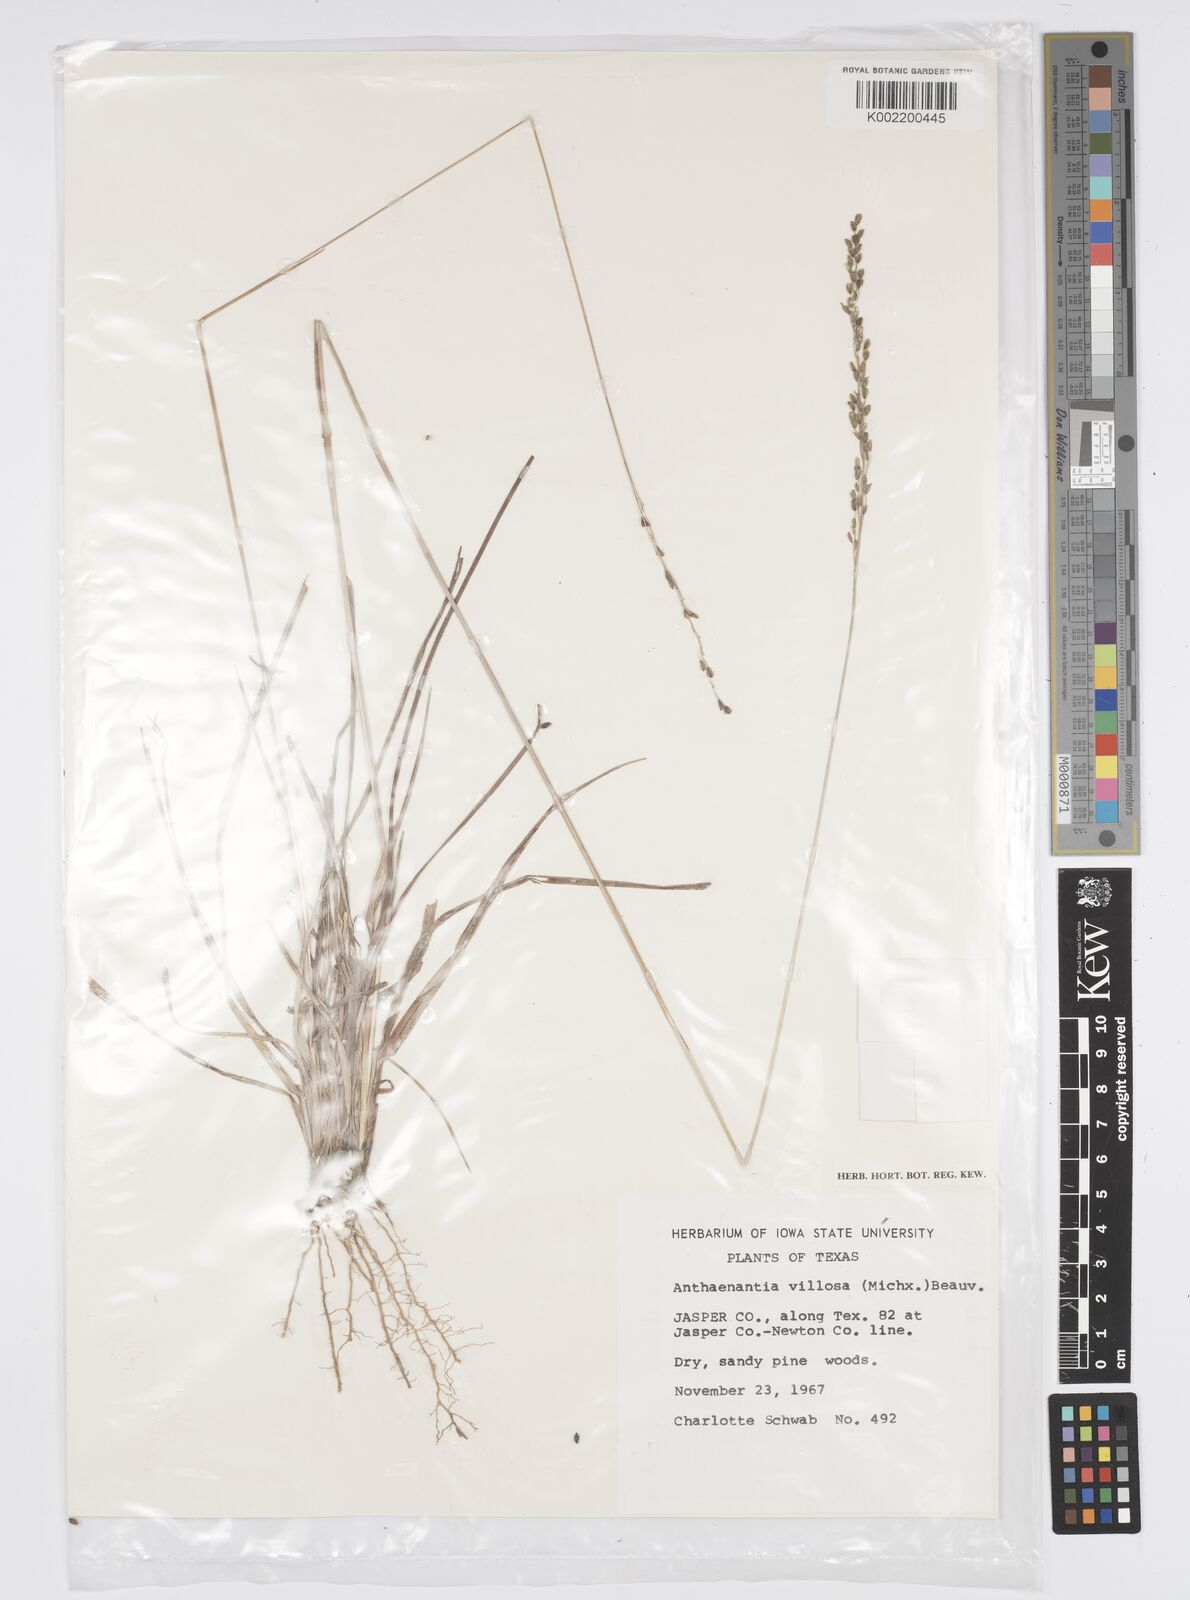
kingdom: Plantae
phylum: Tracheophyta
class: Liliopsida
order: Poales
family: Poaceae
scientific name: Poaceae
